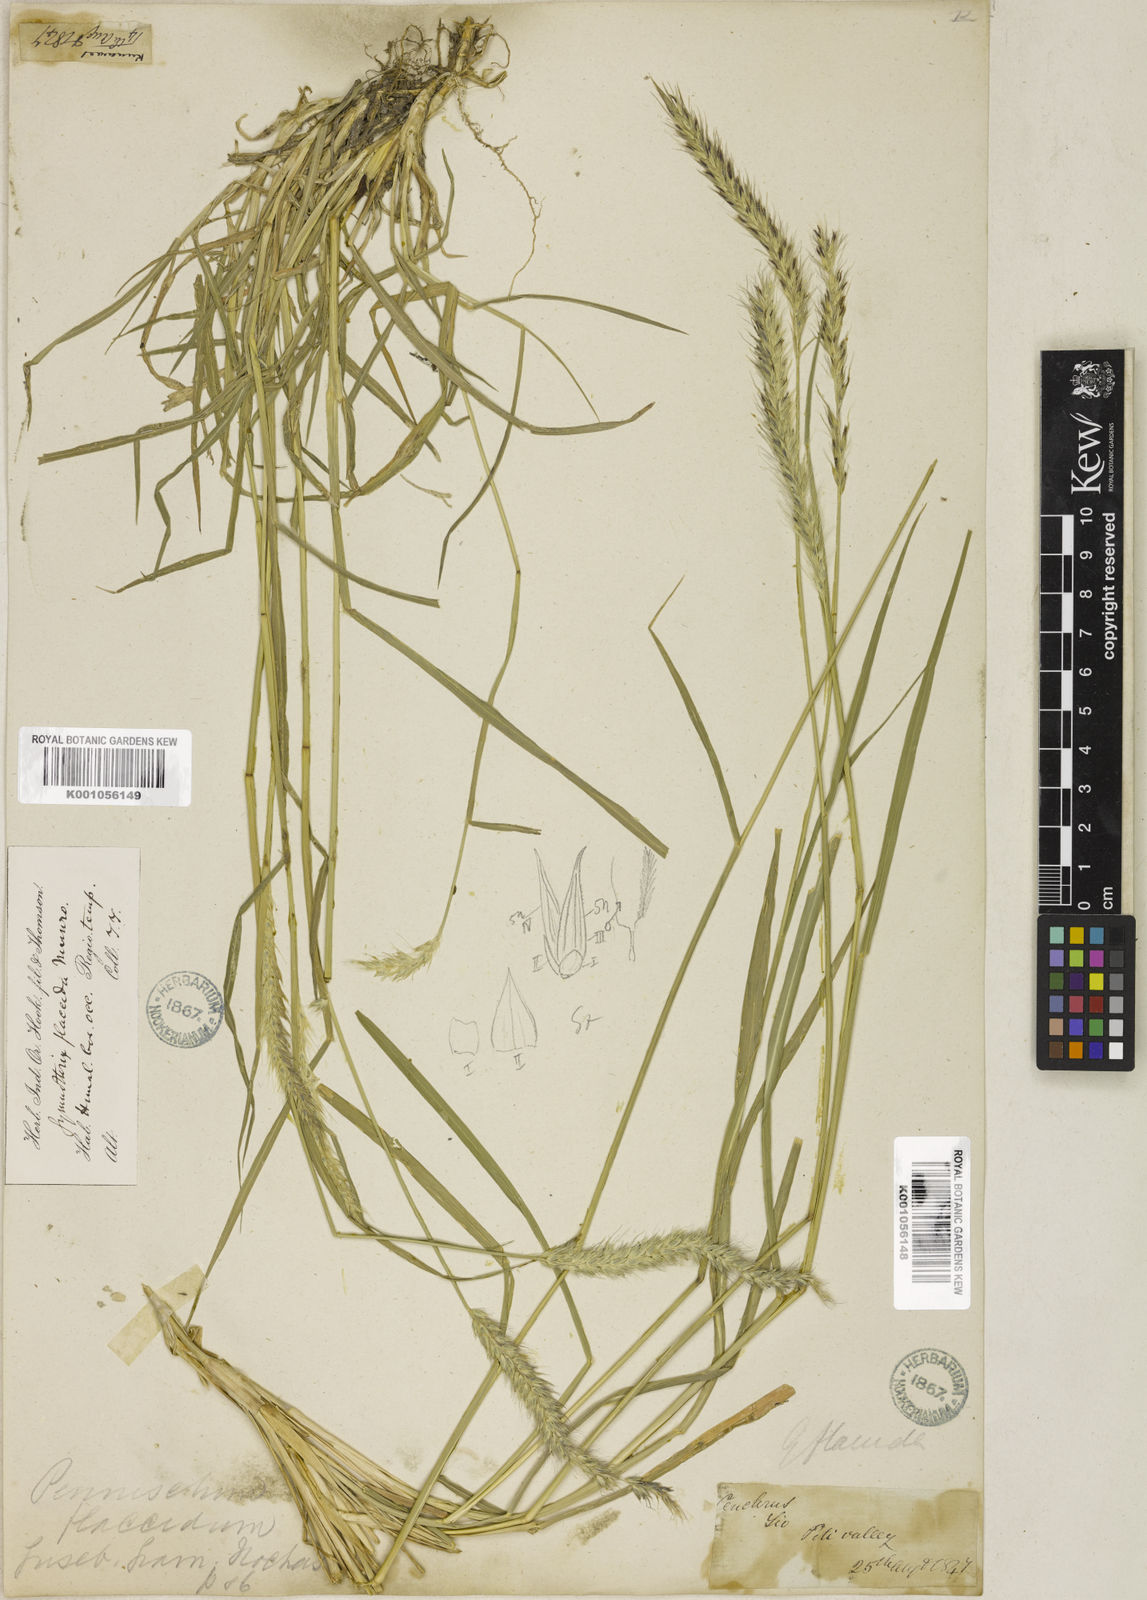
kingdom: Plantae
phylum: Tracheophyta
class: Liliopsida
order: Poales
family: Poaceae
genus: Cenchrus
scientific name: Cenchrus flaccidus
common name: Flaccid grass
